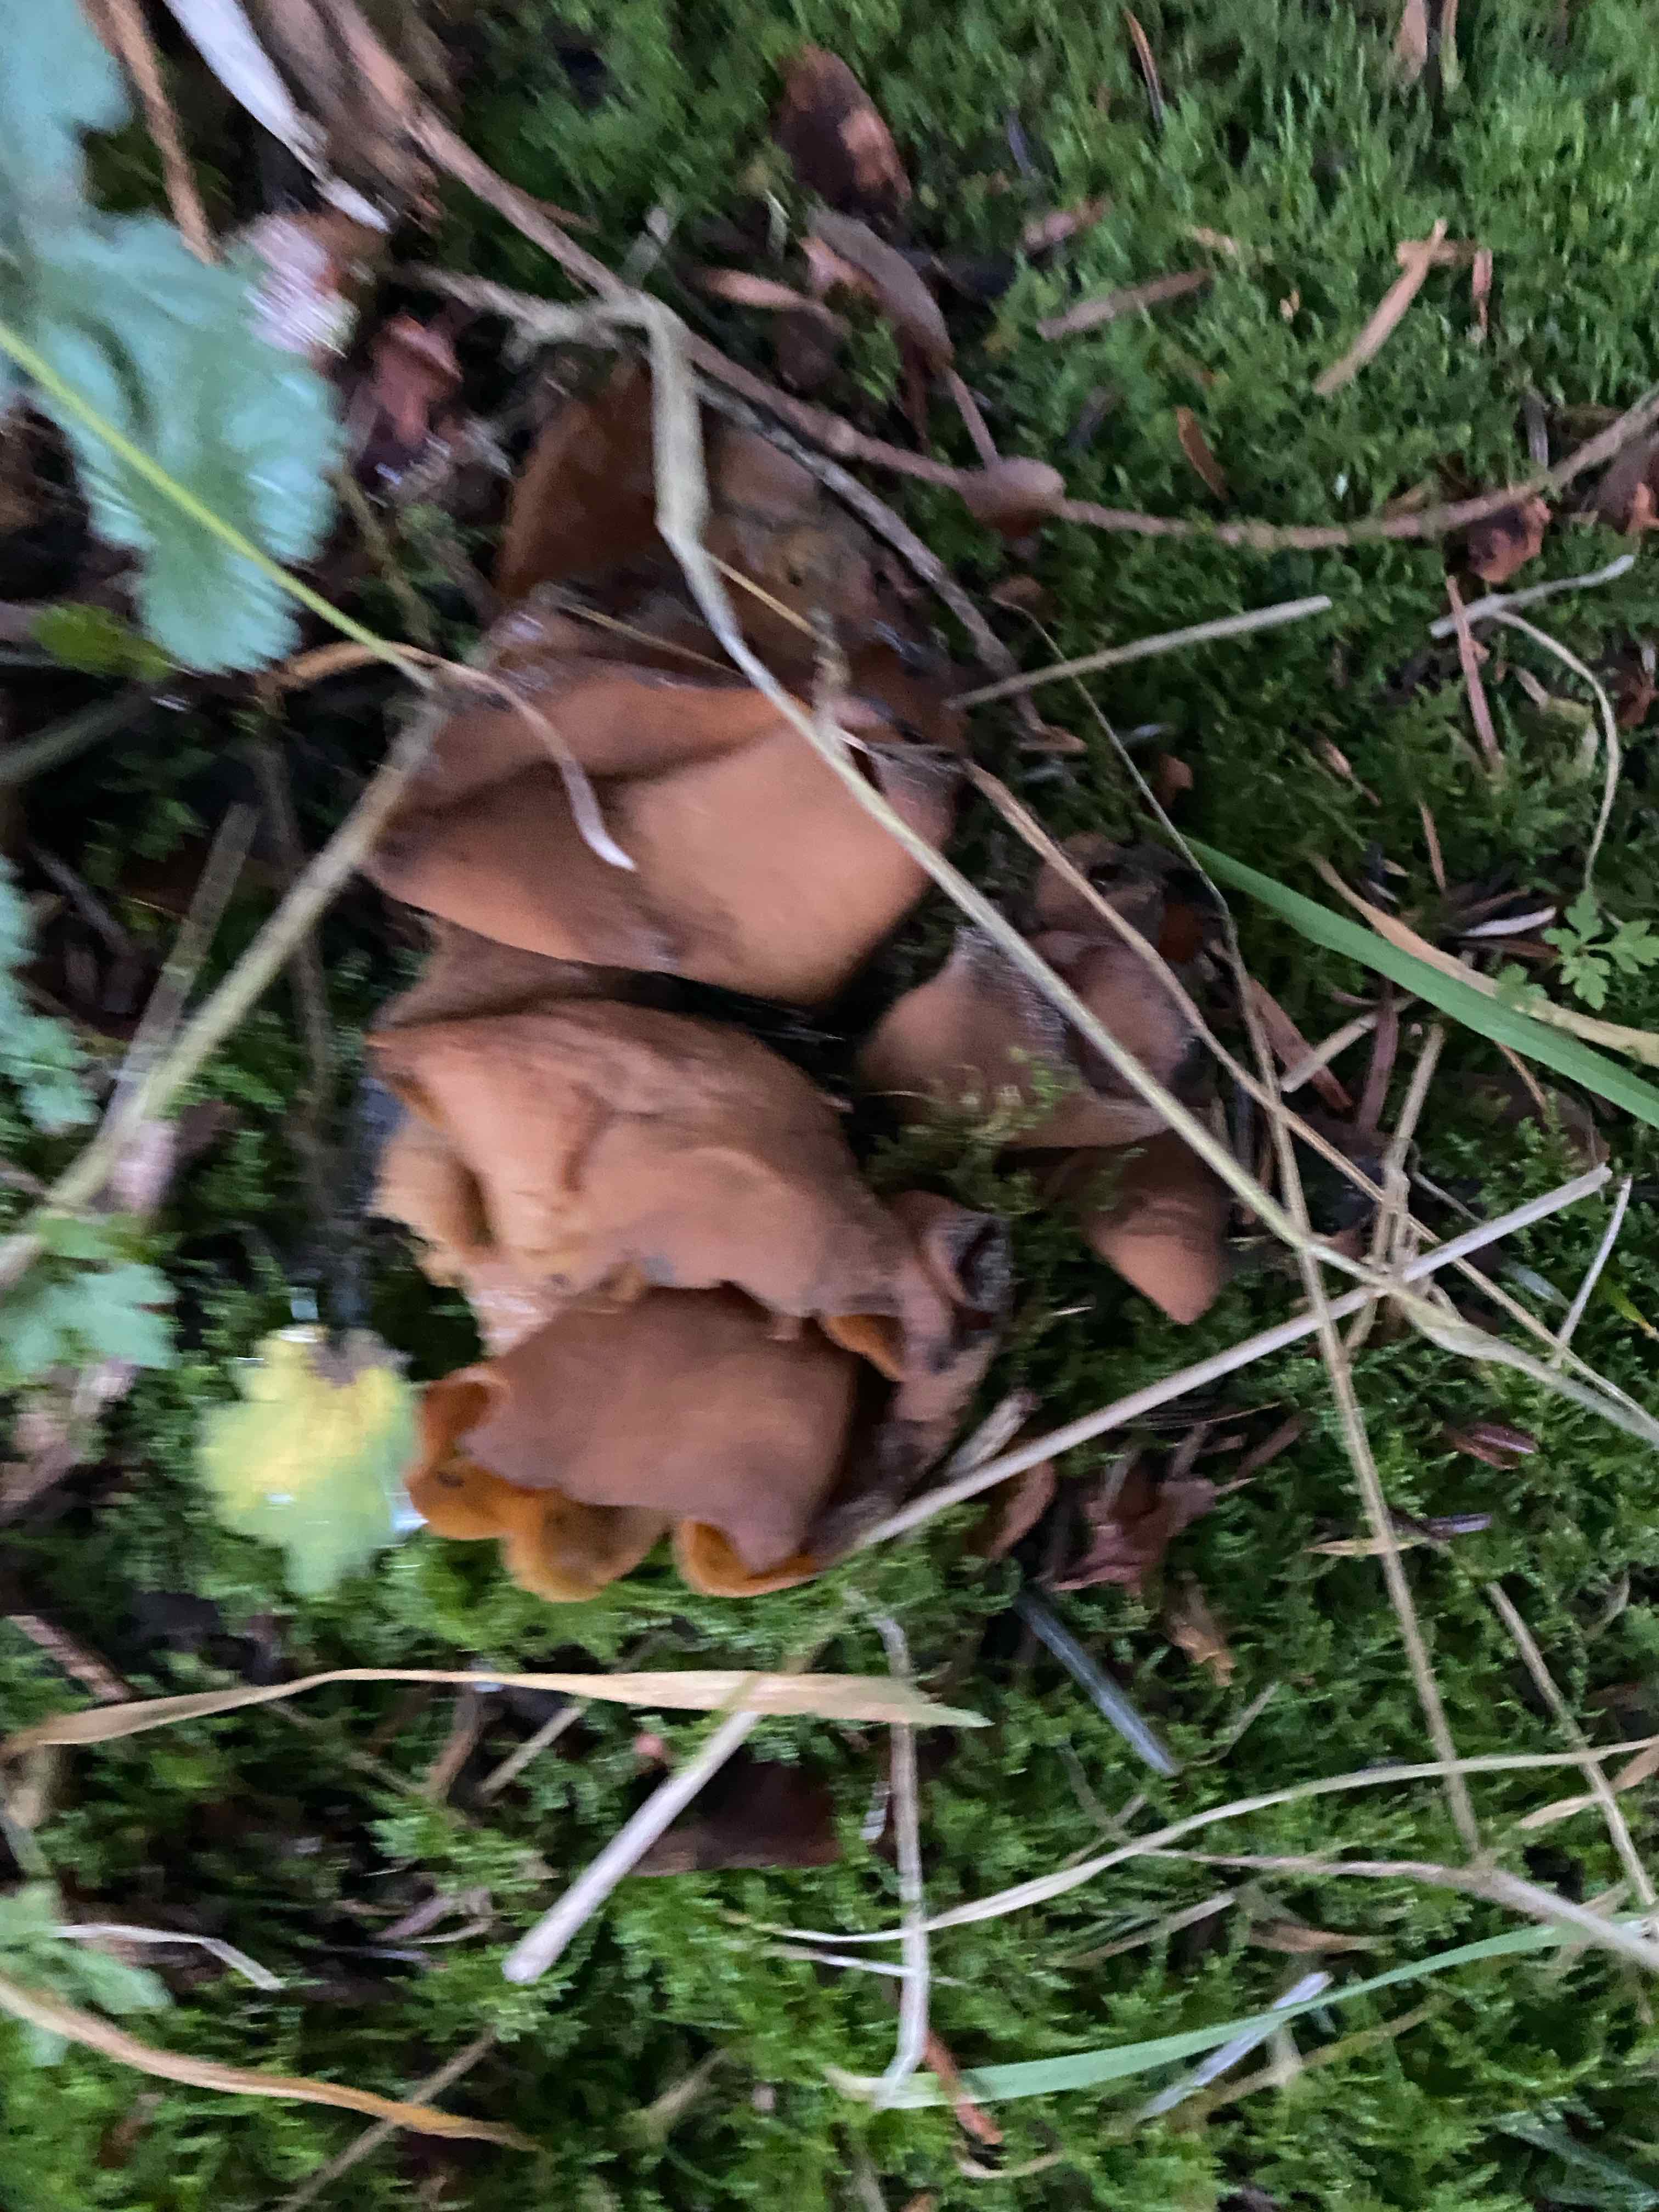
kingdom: Fungi
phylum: Ascomycota
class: Pezizomycetes
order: Pezizales
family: Otideaceae
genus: Otidea
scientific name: Otidea onotica
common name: æsel-ørebæger
